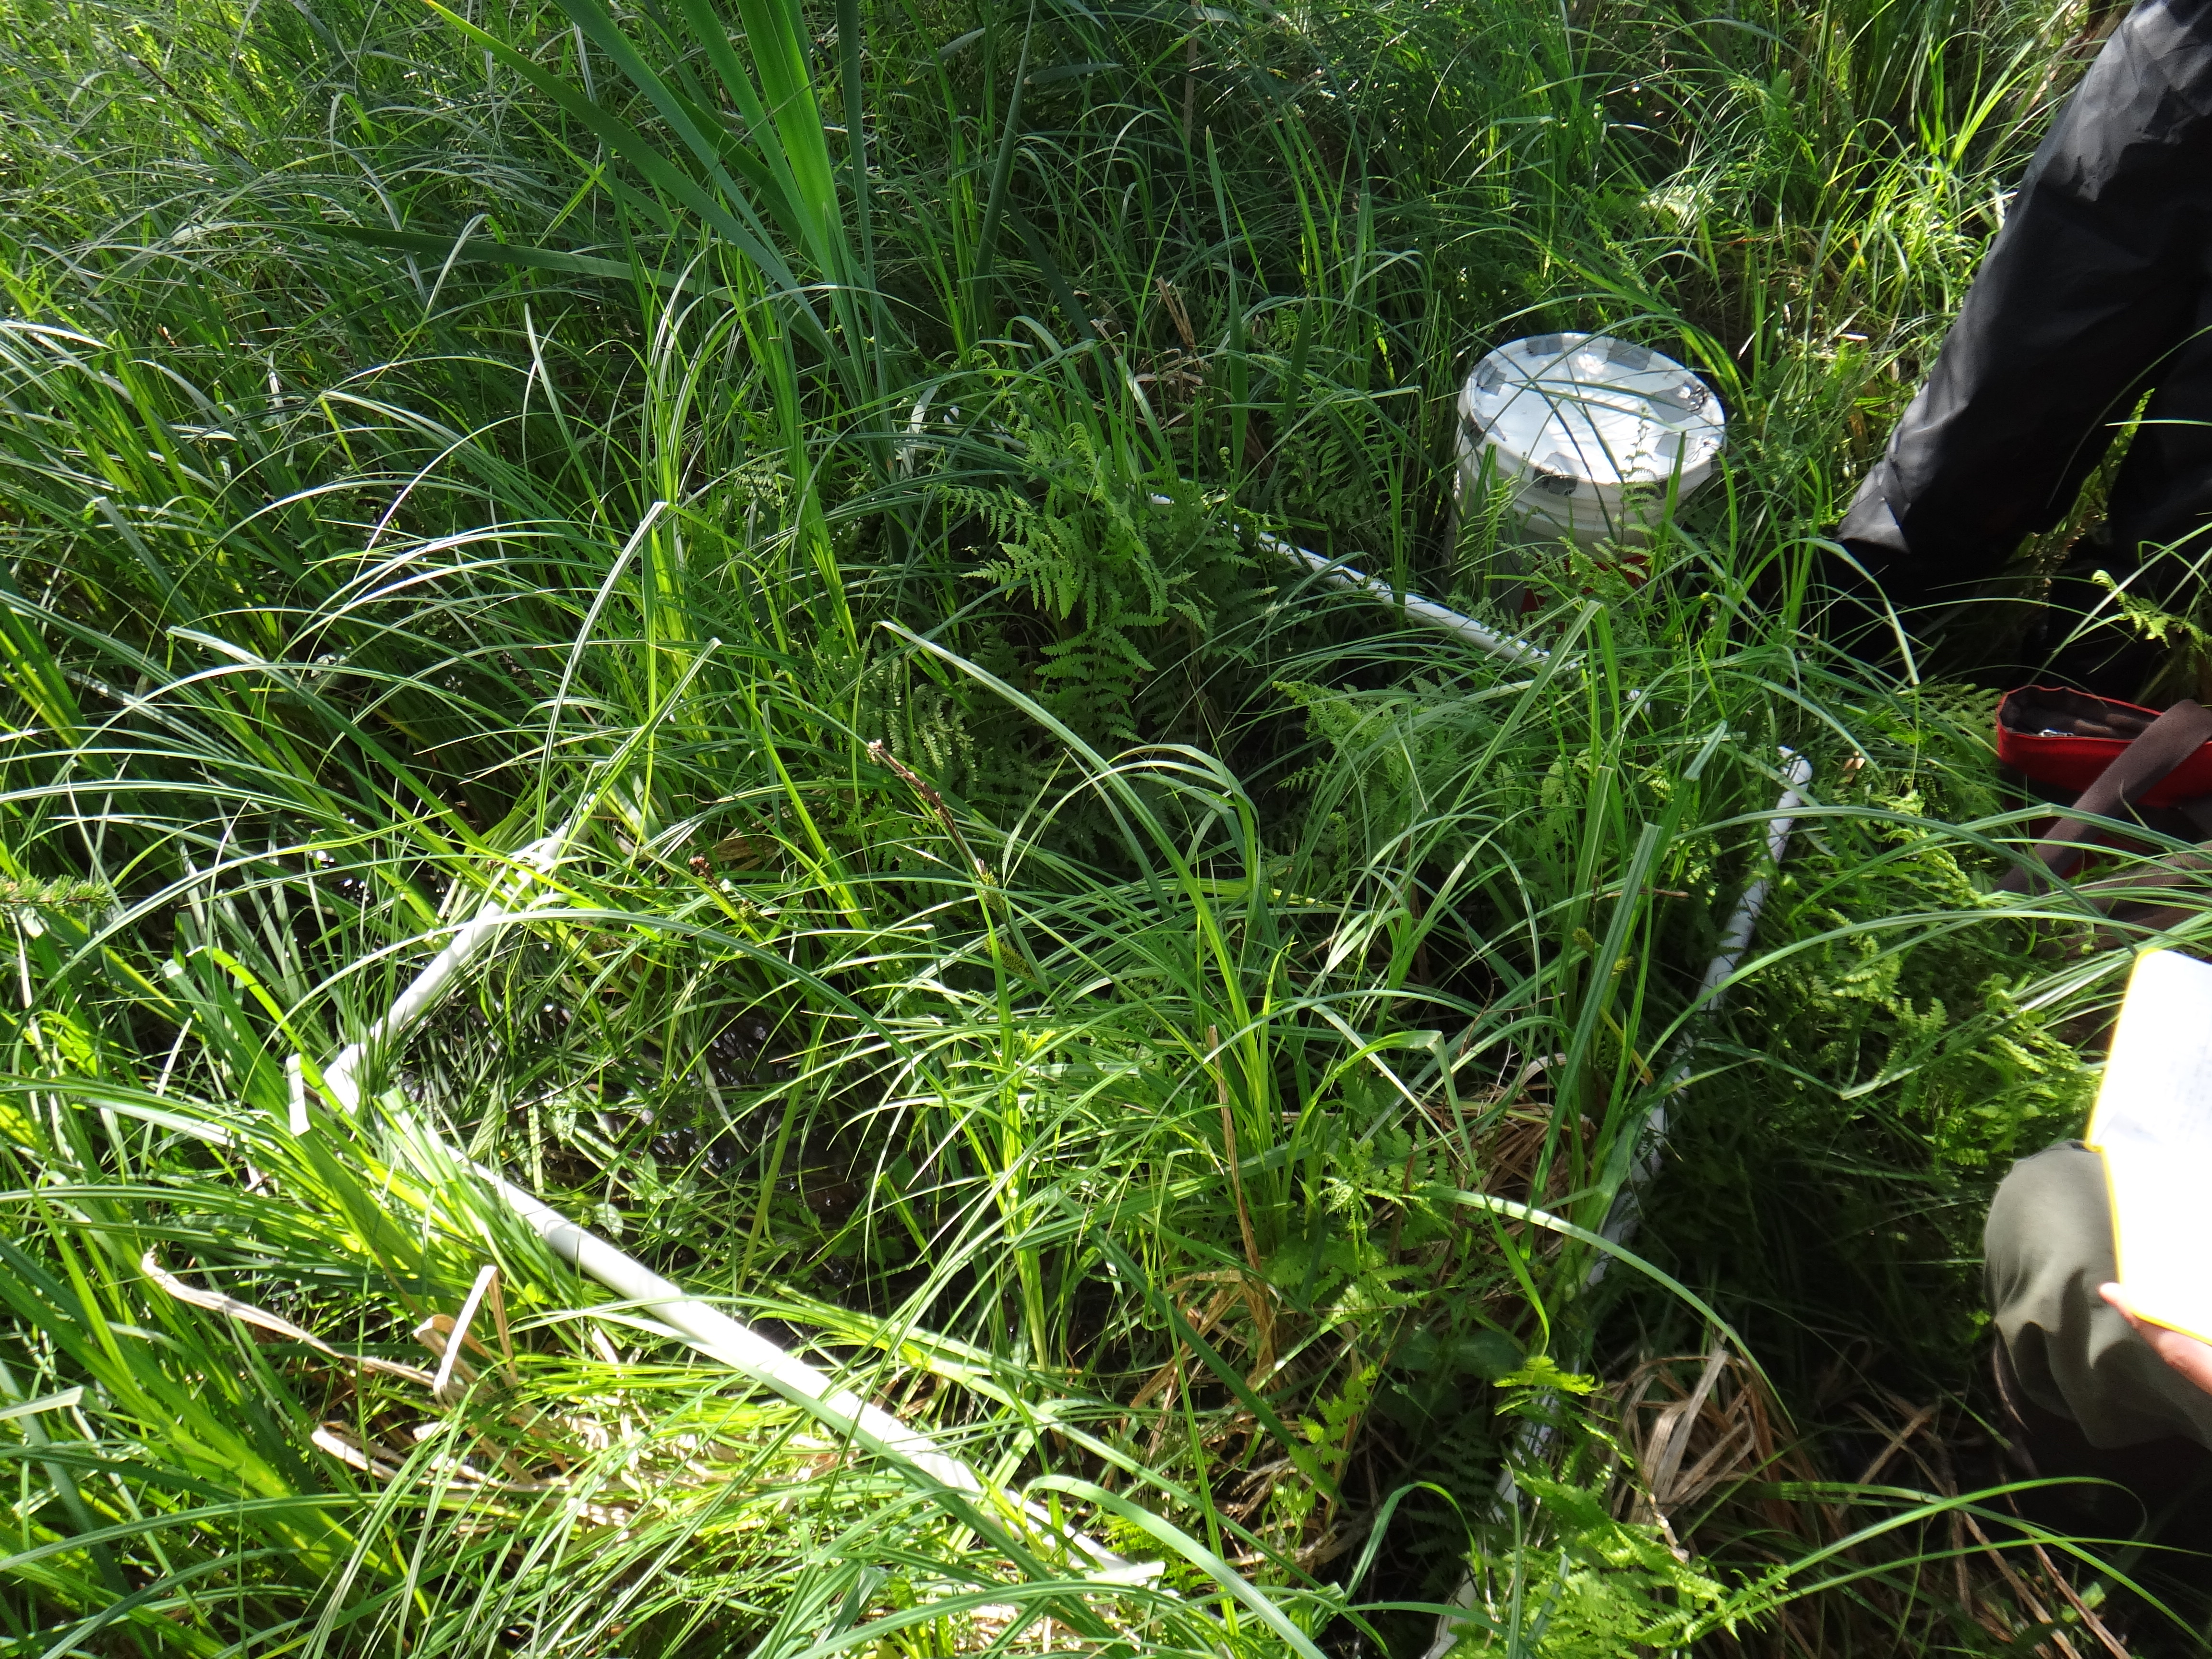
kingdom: Plantae
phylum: Tracheophyta
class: Magnoliopsida
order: Rosales
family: Urticaceae
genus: Boehmeria
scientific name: Boehmeria cylindrica
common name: Bog-hemp
